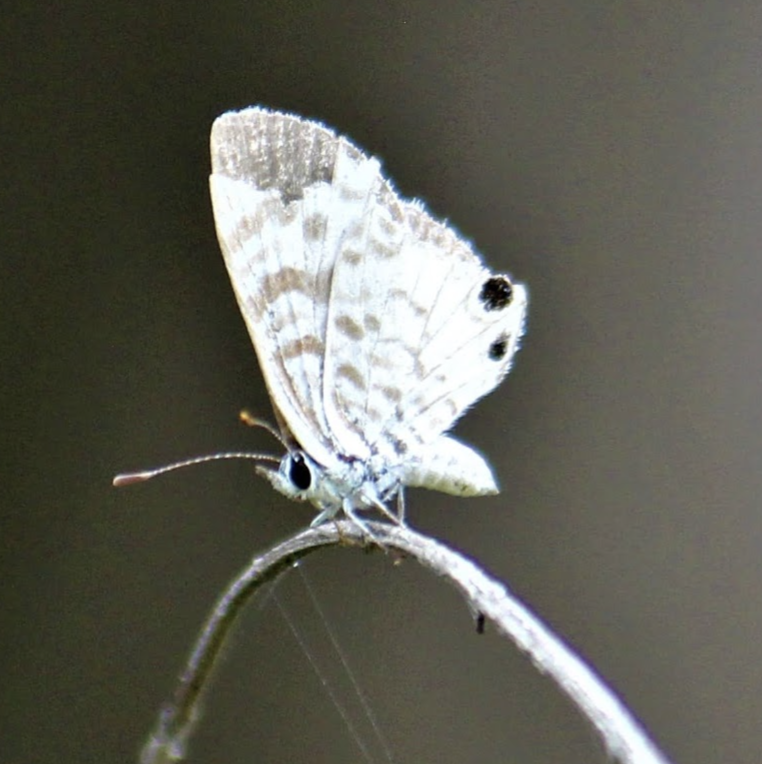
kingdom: Animalia
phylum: Arthropoda
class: Insecta
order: Lepidoptera
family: Lycaenidae
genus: Leptotes
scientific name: Leptotes cassius
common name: Cassius Blue
